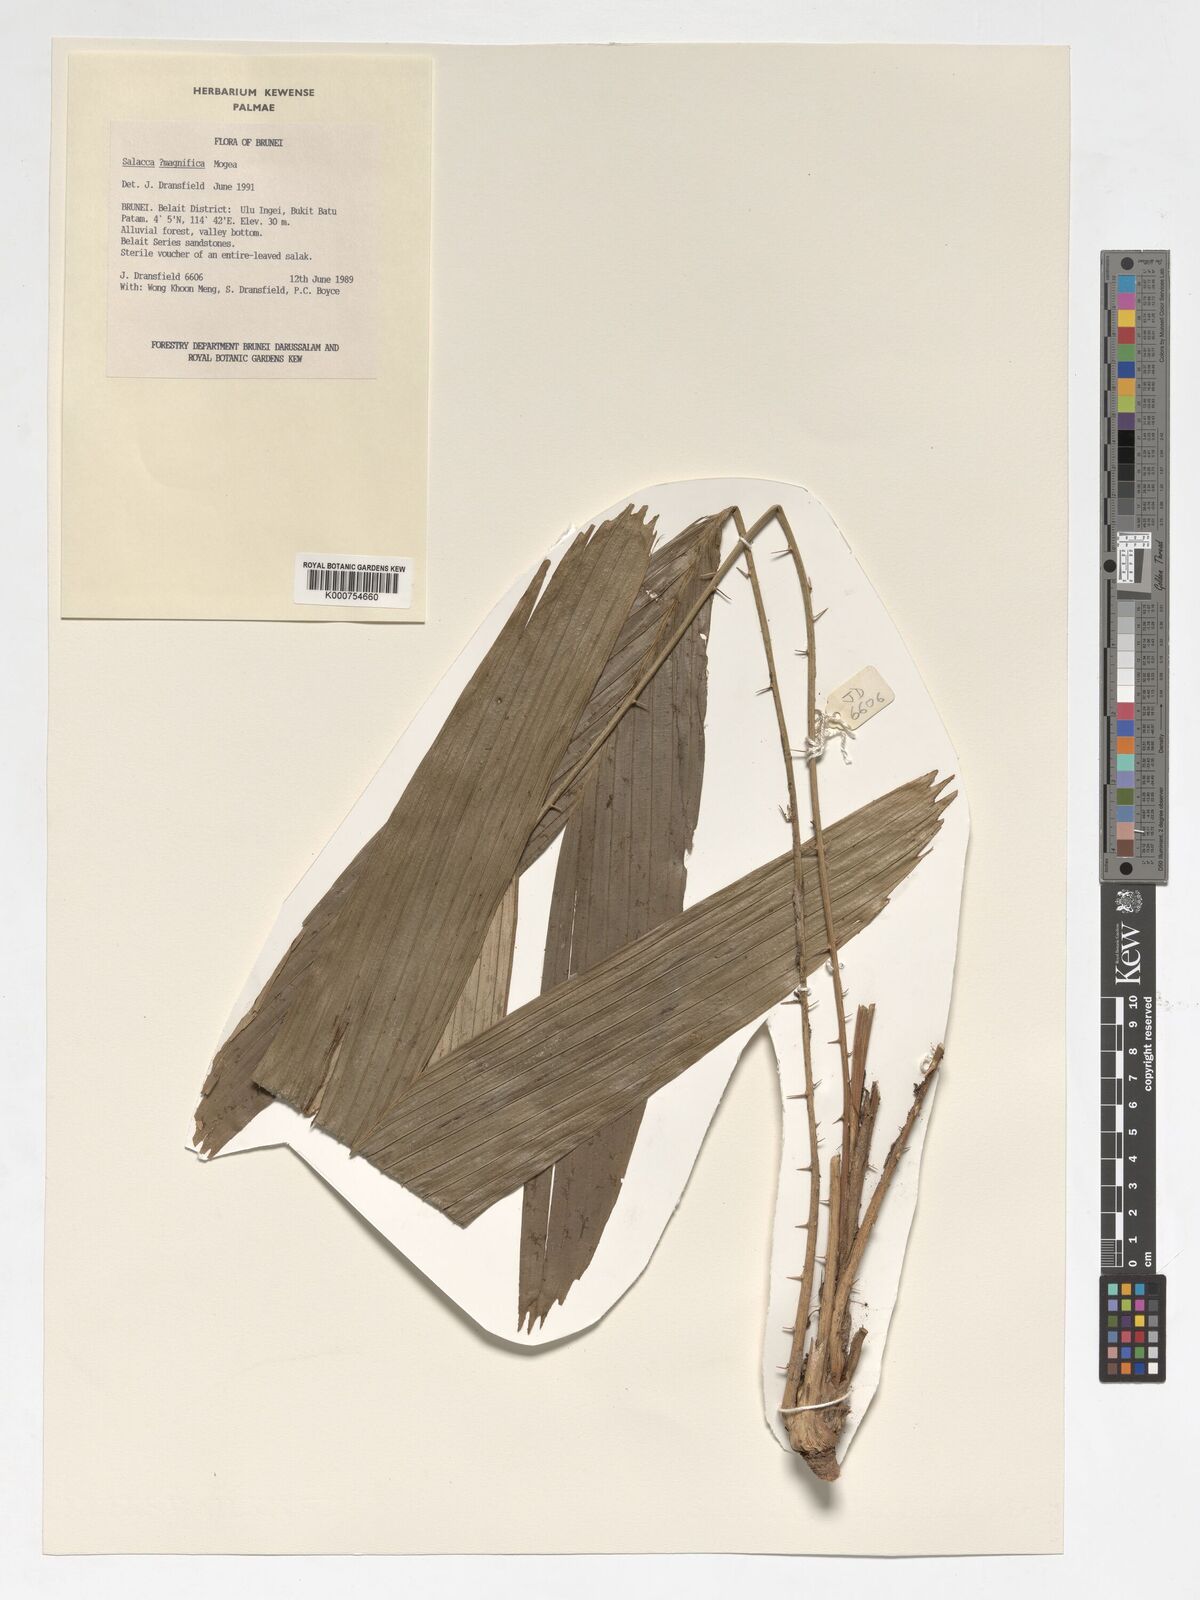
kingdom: Plantae
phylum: Tracheophyta
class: Liliopsida
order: Arecales
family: Arecaceae
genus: Salacca
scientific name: Salacca magnifica
